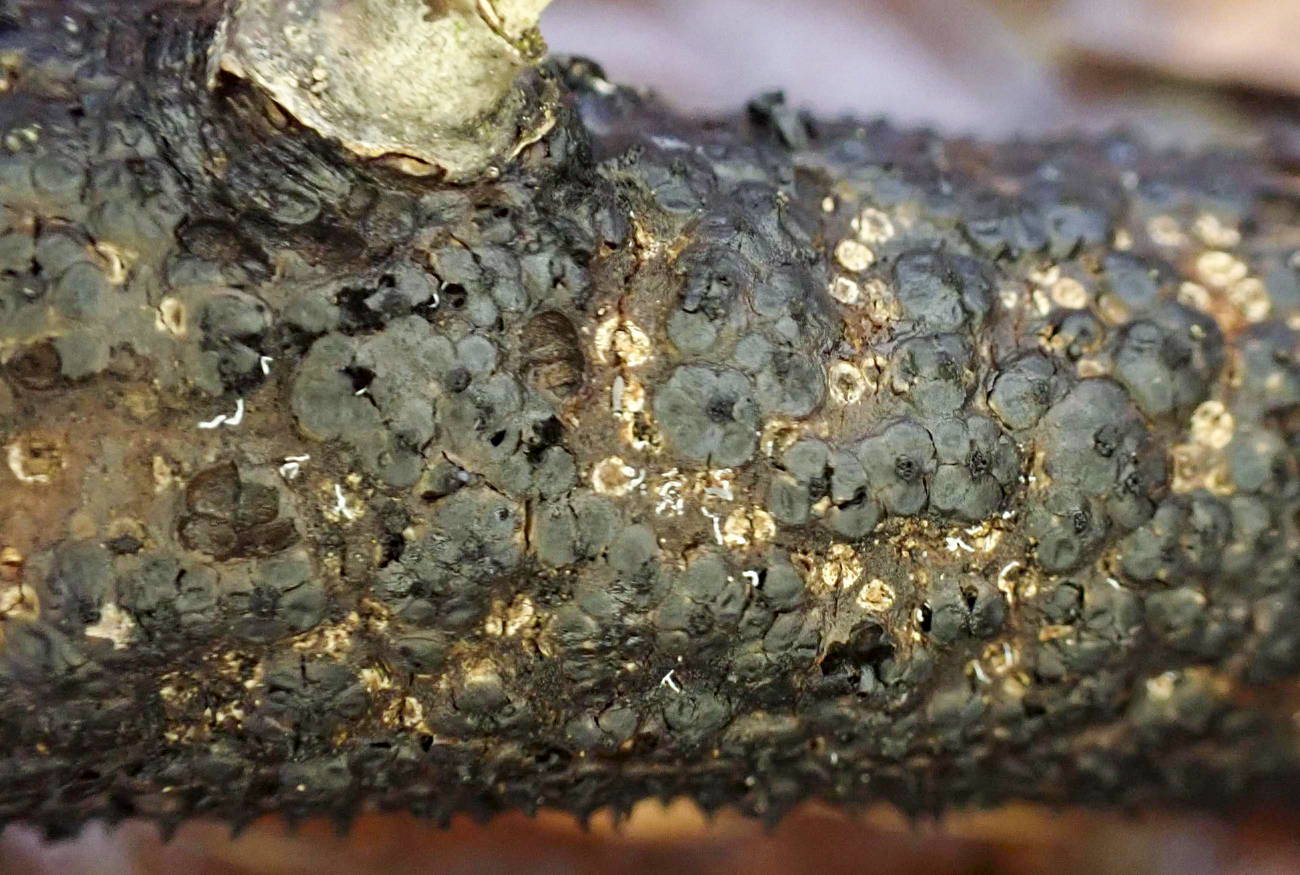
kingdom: Fungi
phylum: Ascomycota
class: Sordariomycetes
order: Xylariales
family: Diatrypaceae
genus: Eutypella
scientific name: Eutypella quaternata
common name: bøge-korsprik
